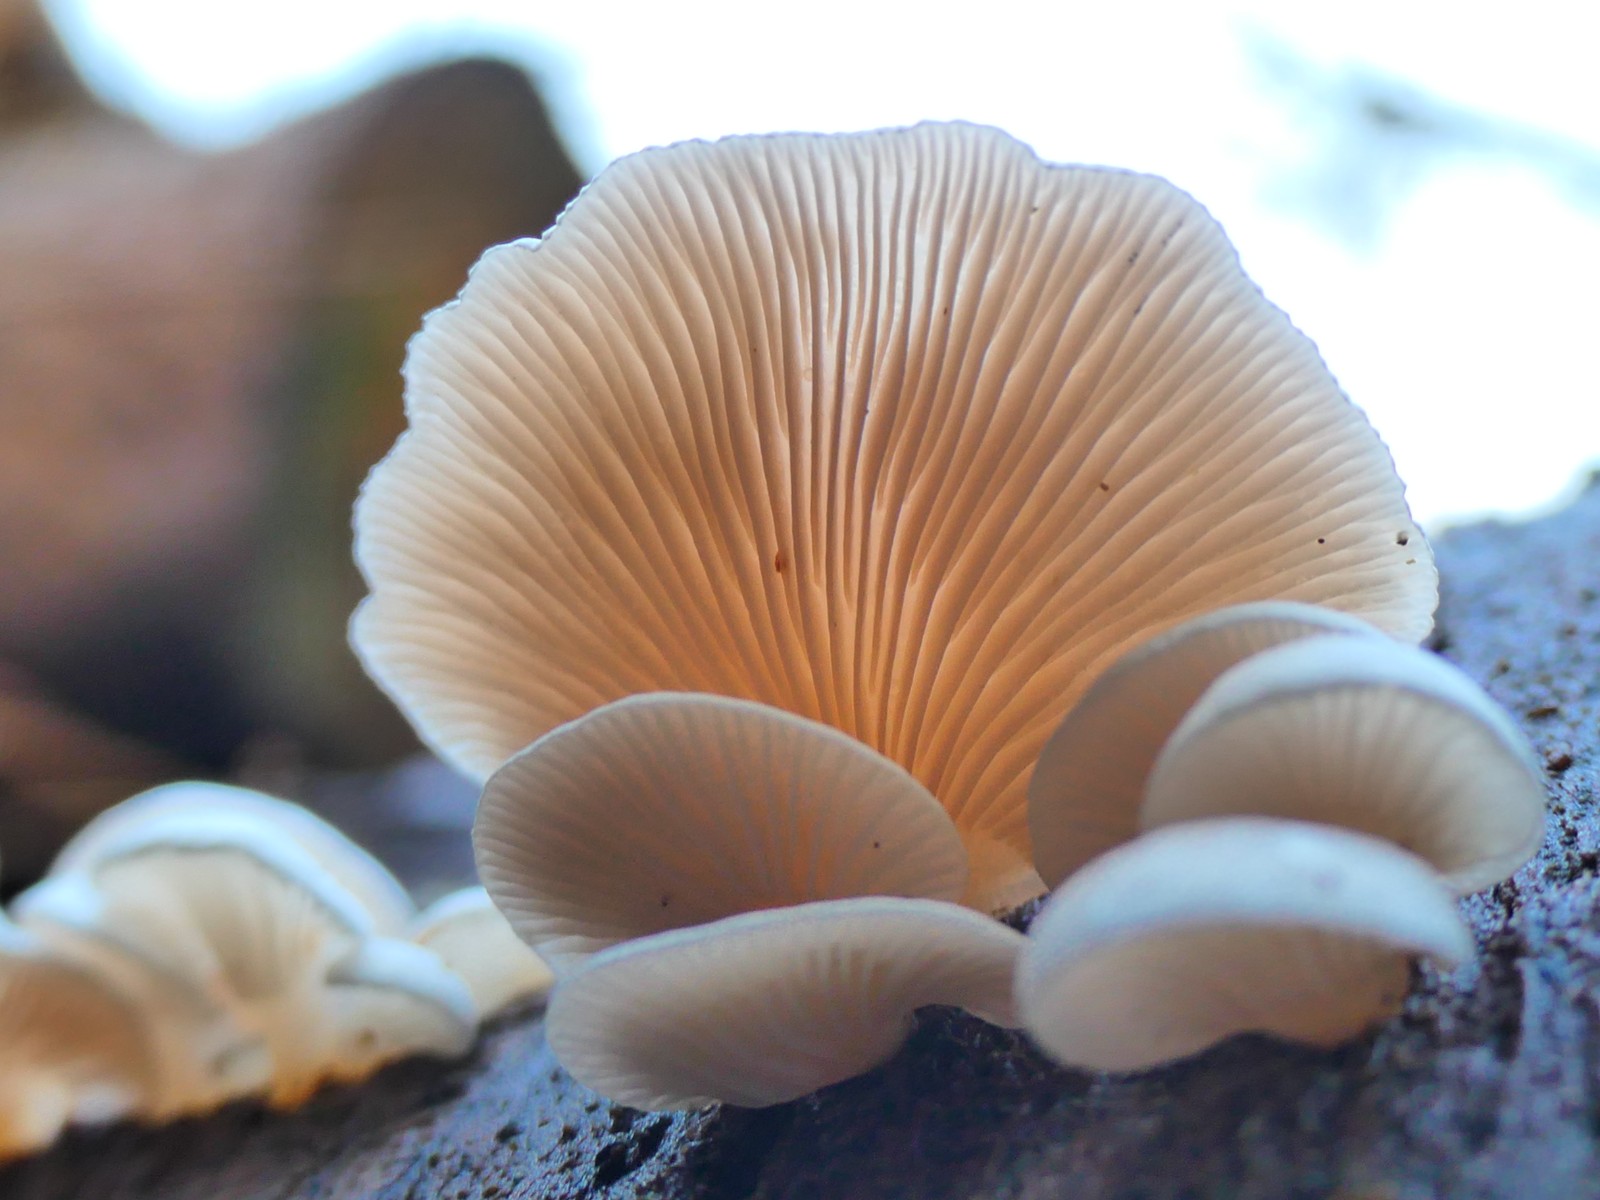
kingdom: Fungi
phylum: Basidiomycota
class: Agaricomycetes
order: Agaricales
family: Mycenaceae
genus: Panellus
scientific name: Panellus mitis
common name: mild epaulethat
